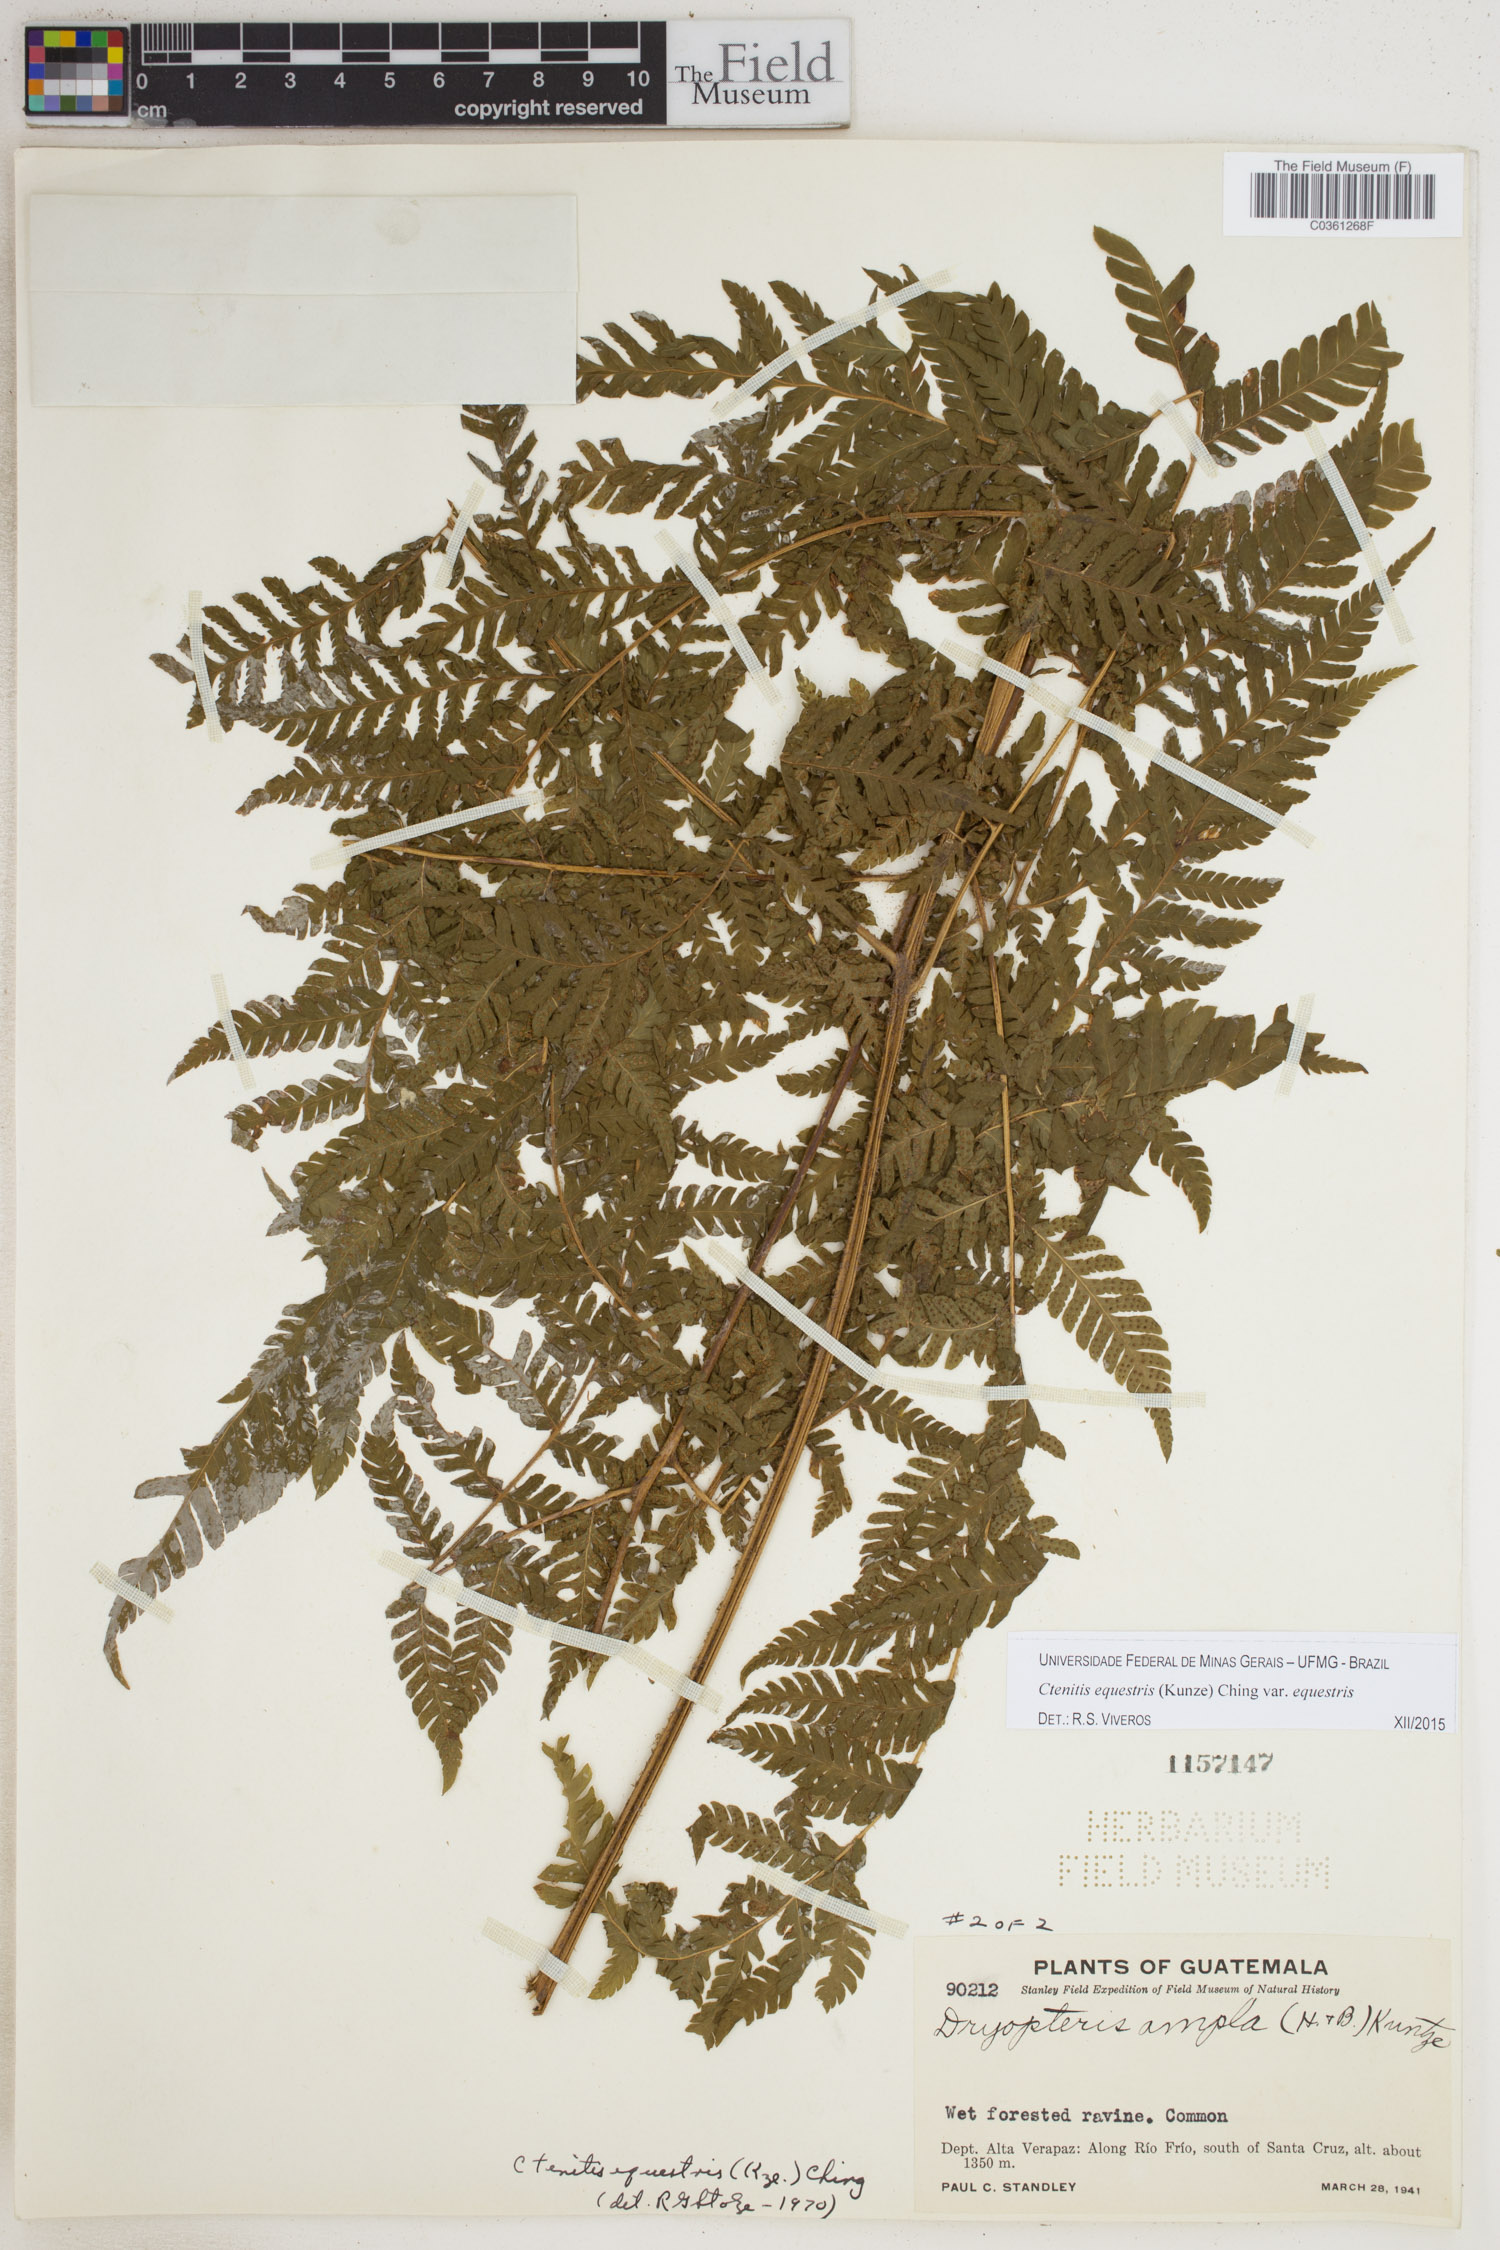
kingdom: Plantae
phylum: Tracheophyta
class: Polypodiopsida
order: Polypodiales
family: Dryopteridaceae
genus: Ctenitis
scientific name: Ctenitis equestris
